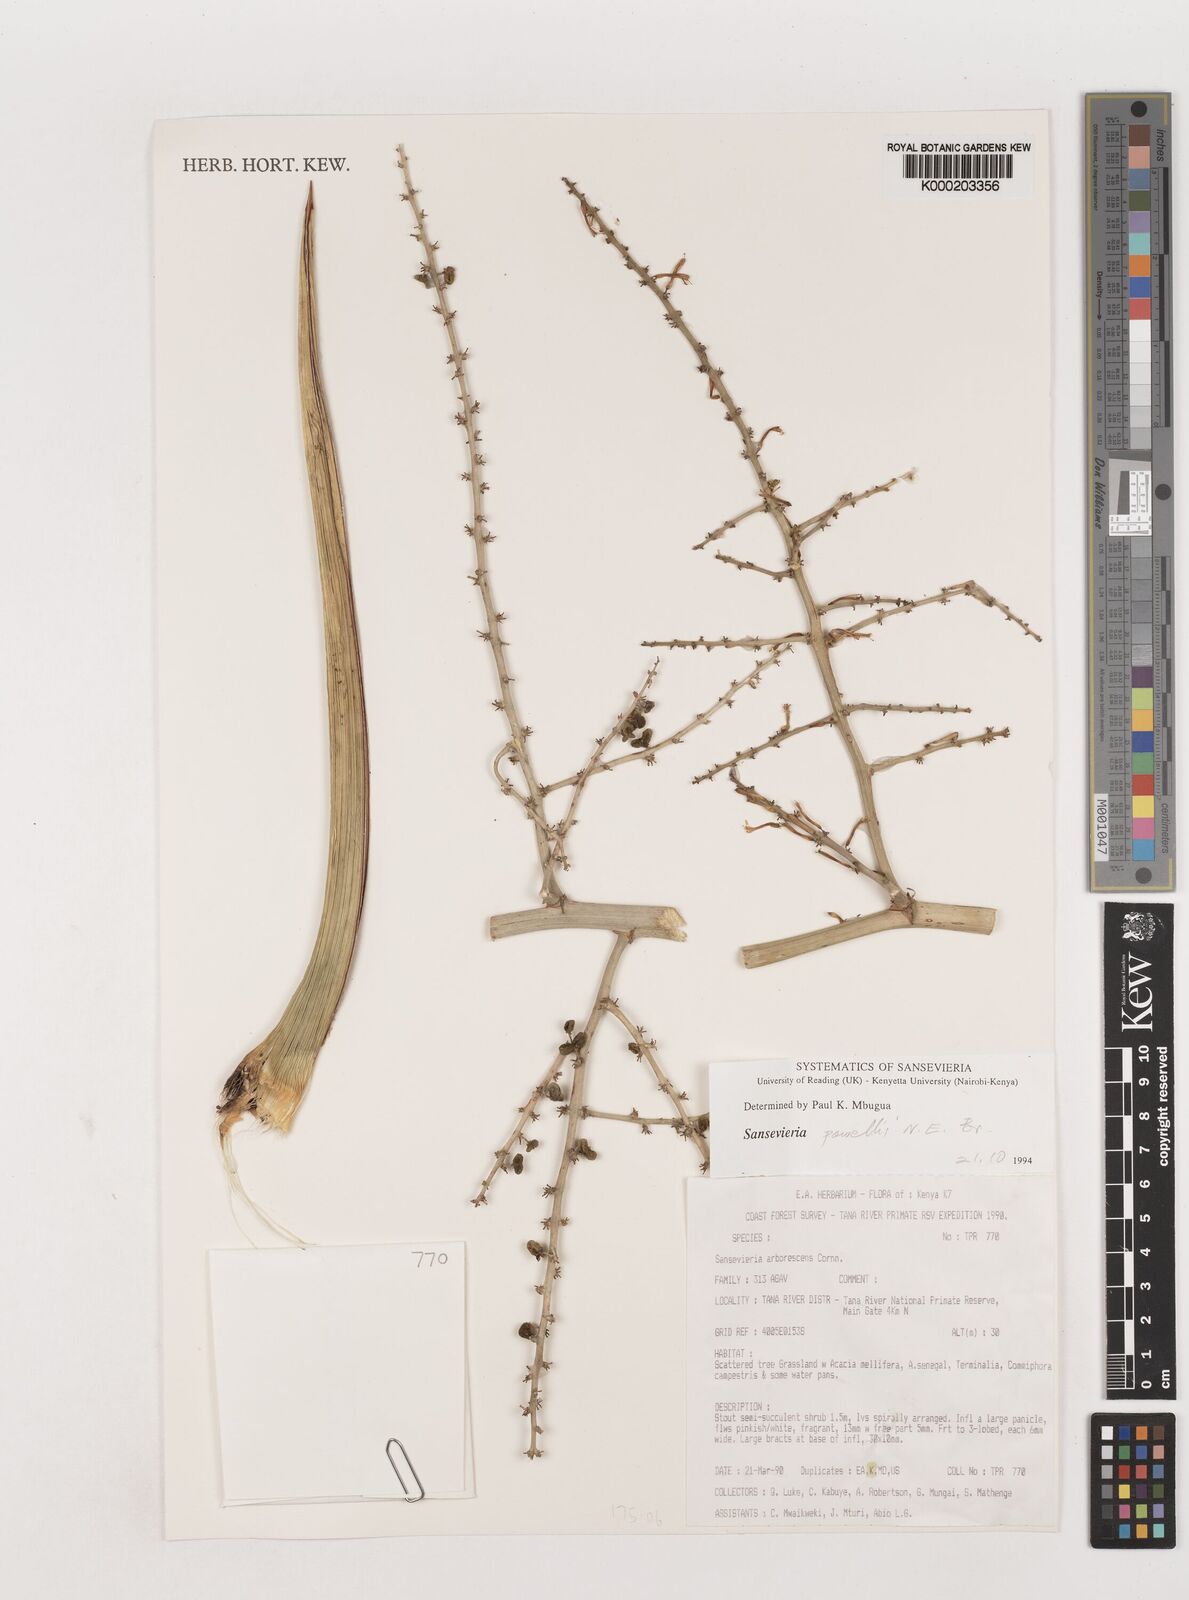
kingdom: Plantae
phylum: Tracheophyta
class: Liliopsida
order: Asparagales
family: Asparagaceae
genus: Dracaena
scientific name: Dracaena powellii
